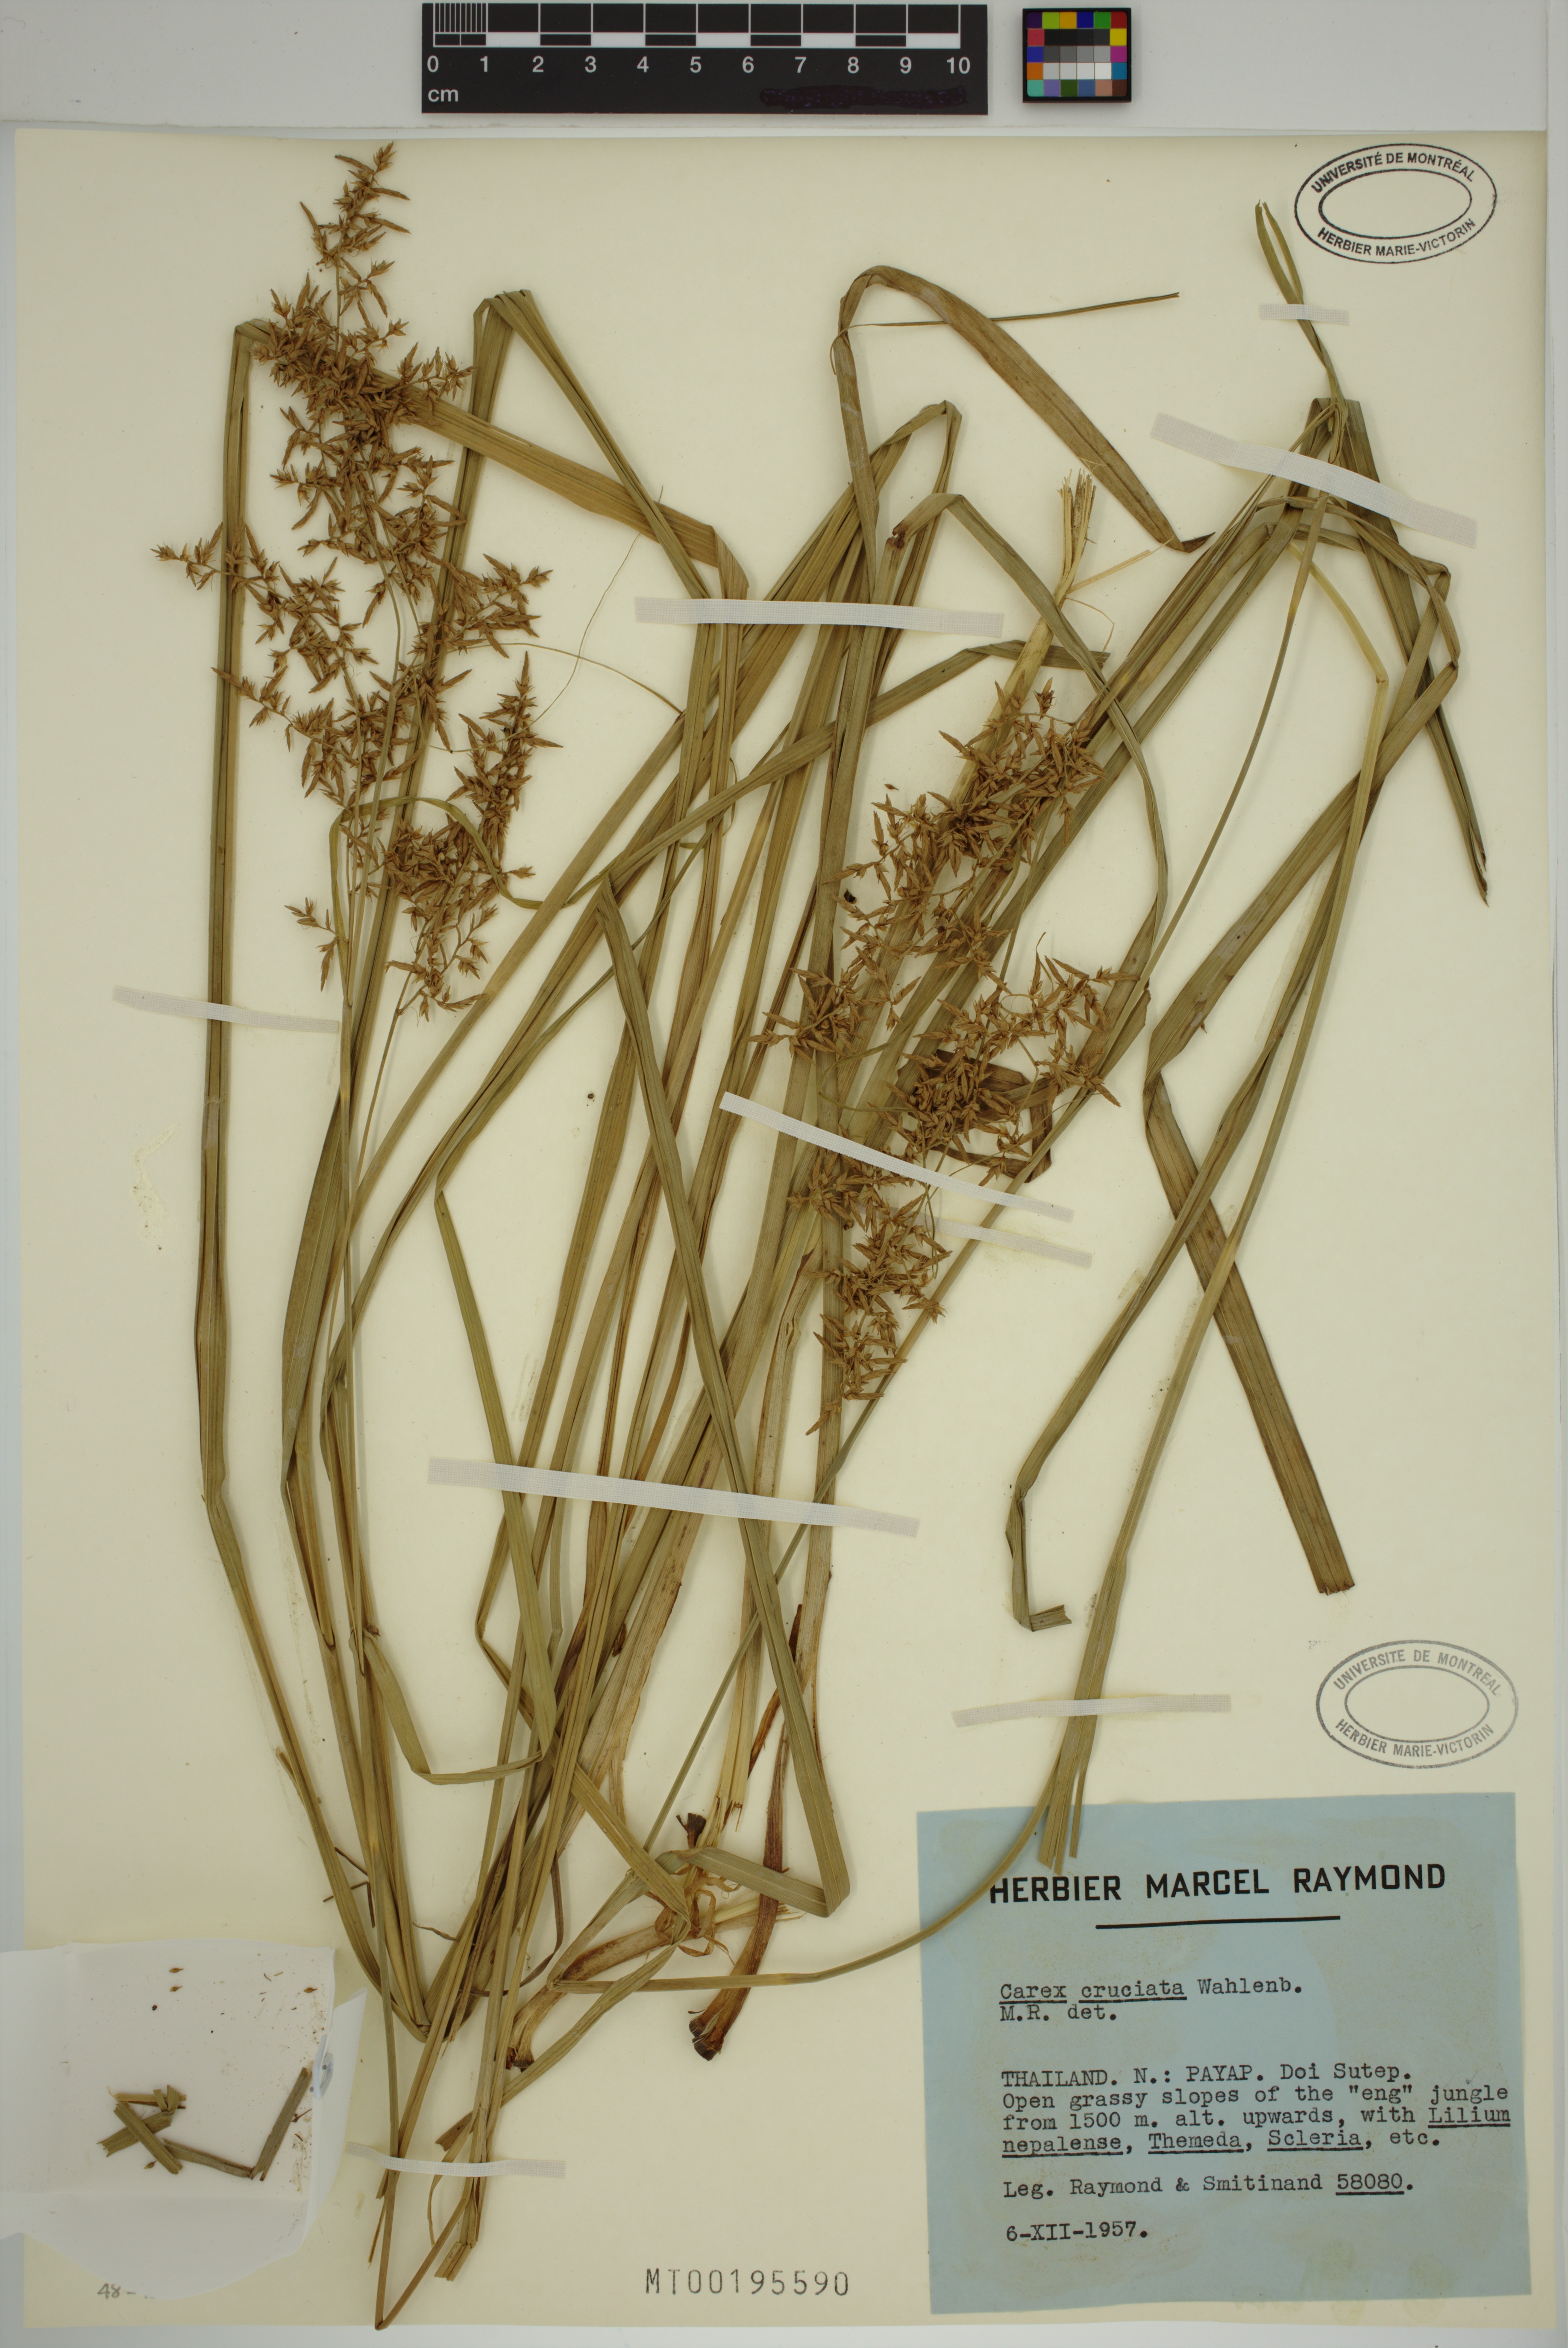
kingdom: Plantae
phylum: Tracheophyta
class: Liliopsida
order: Poales
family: Cyperaceae
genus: Carex
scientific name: Carex cruciata
